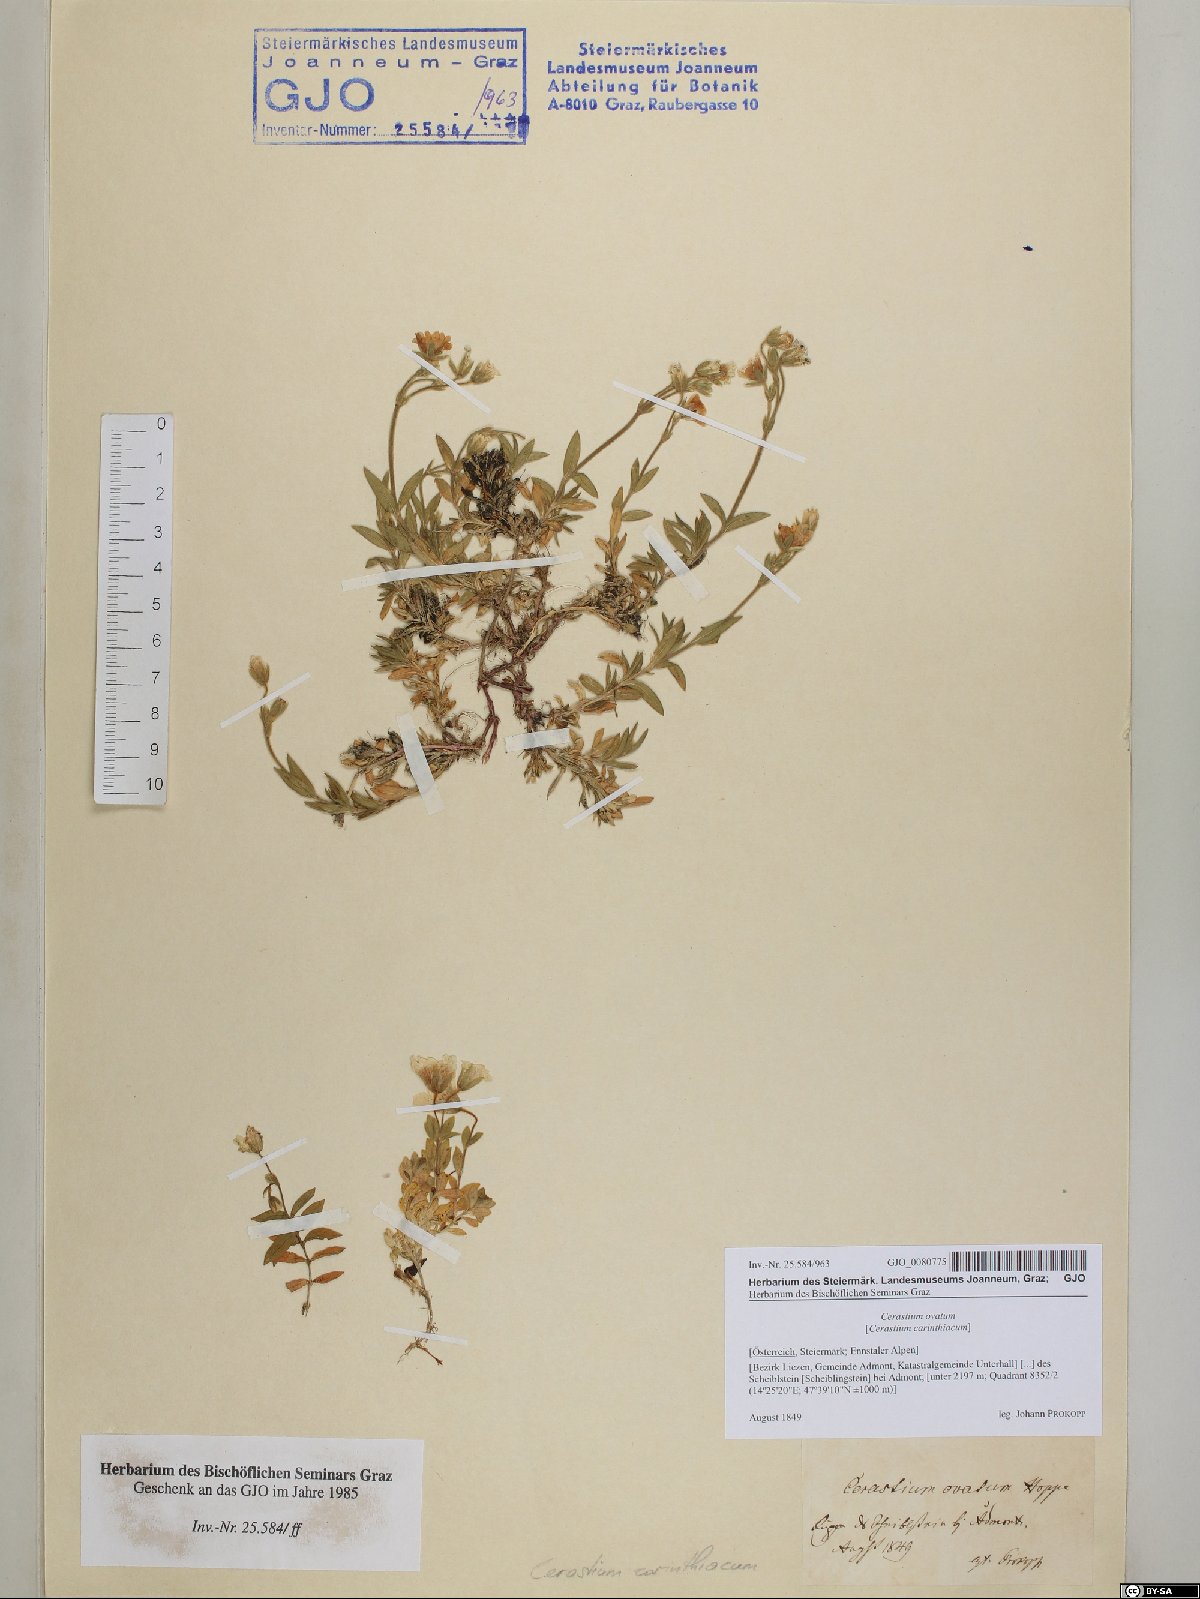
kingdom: Plantae
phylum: Tracheophyta
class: Magnoliopsida
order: Caryophyllales
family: Caryophyllaceae
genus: Cerastium
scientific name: Cerastium arvense
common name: Field mouse-ear
